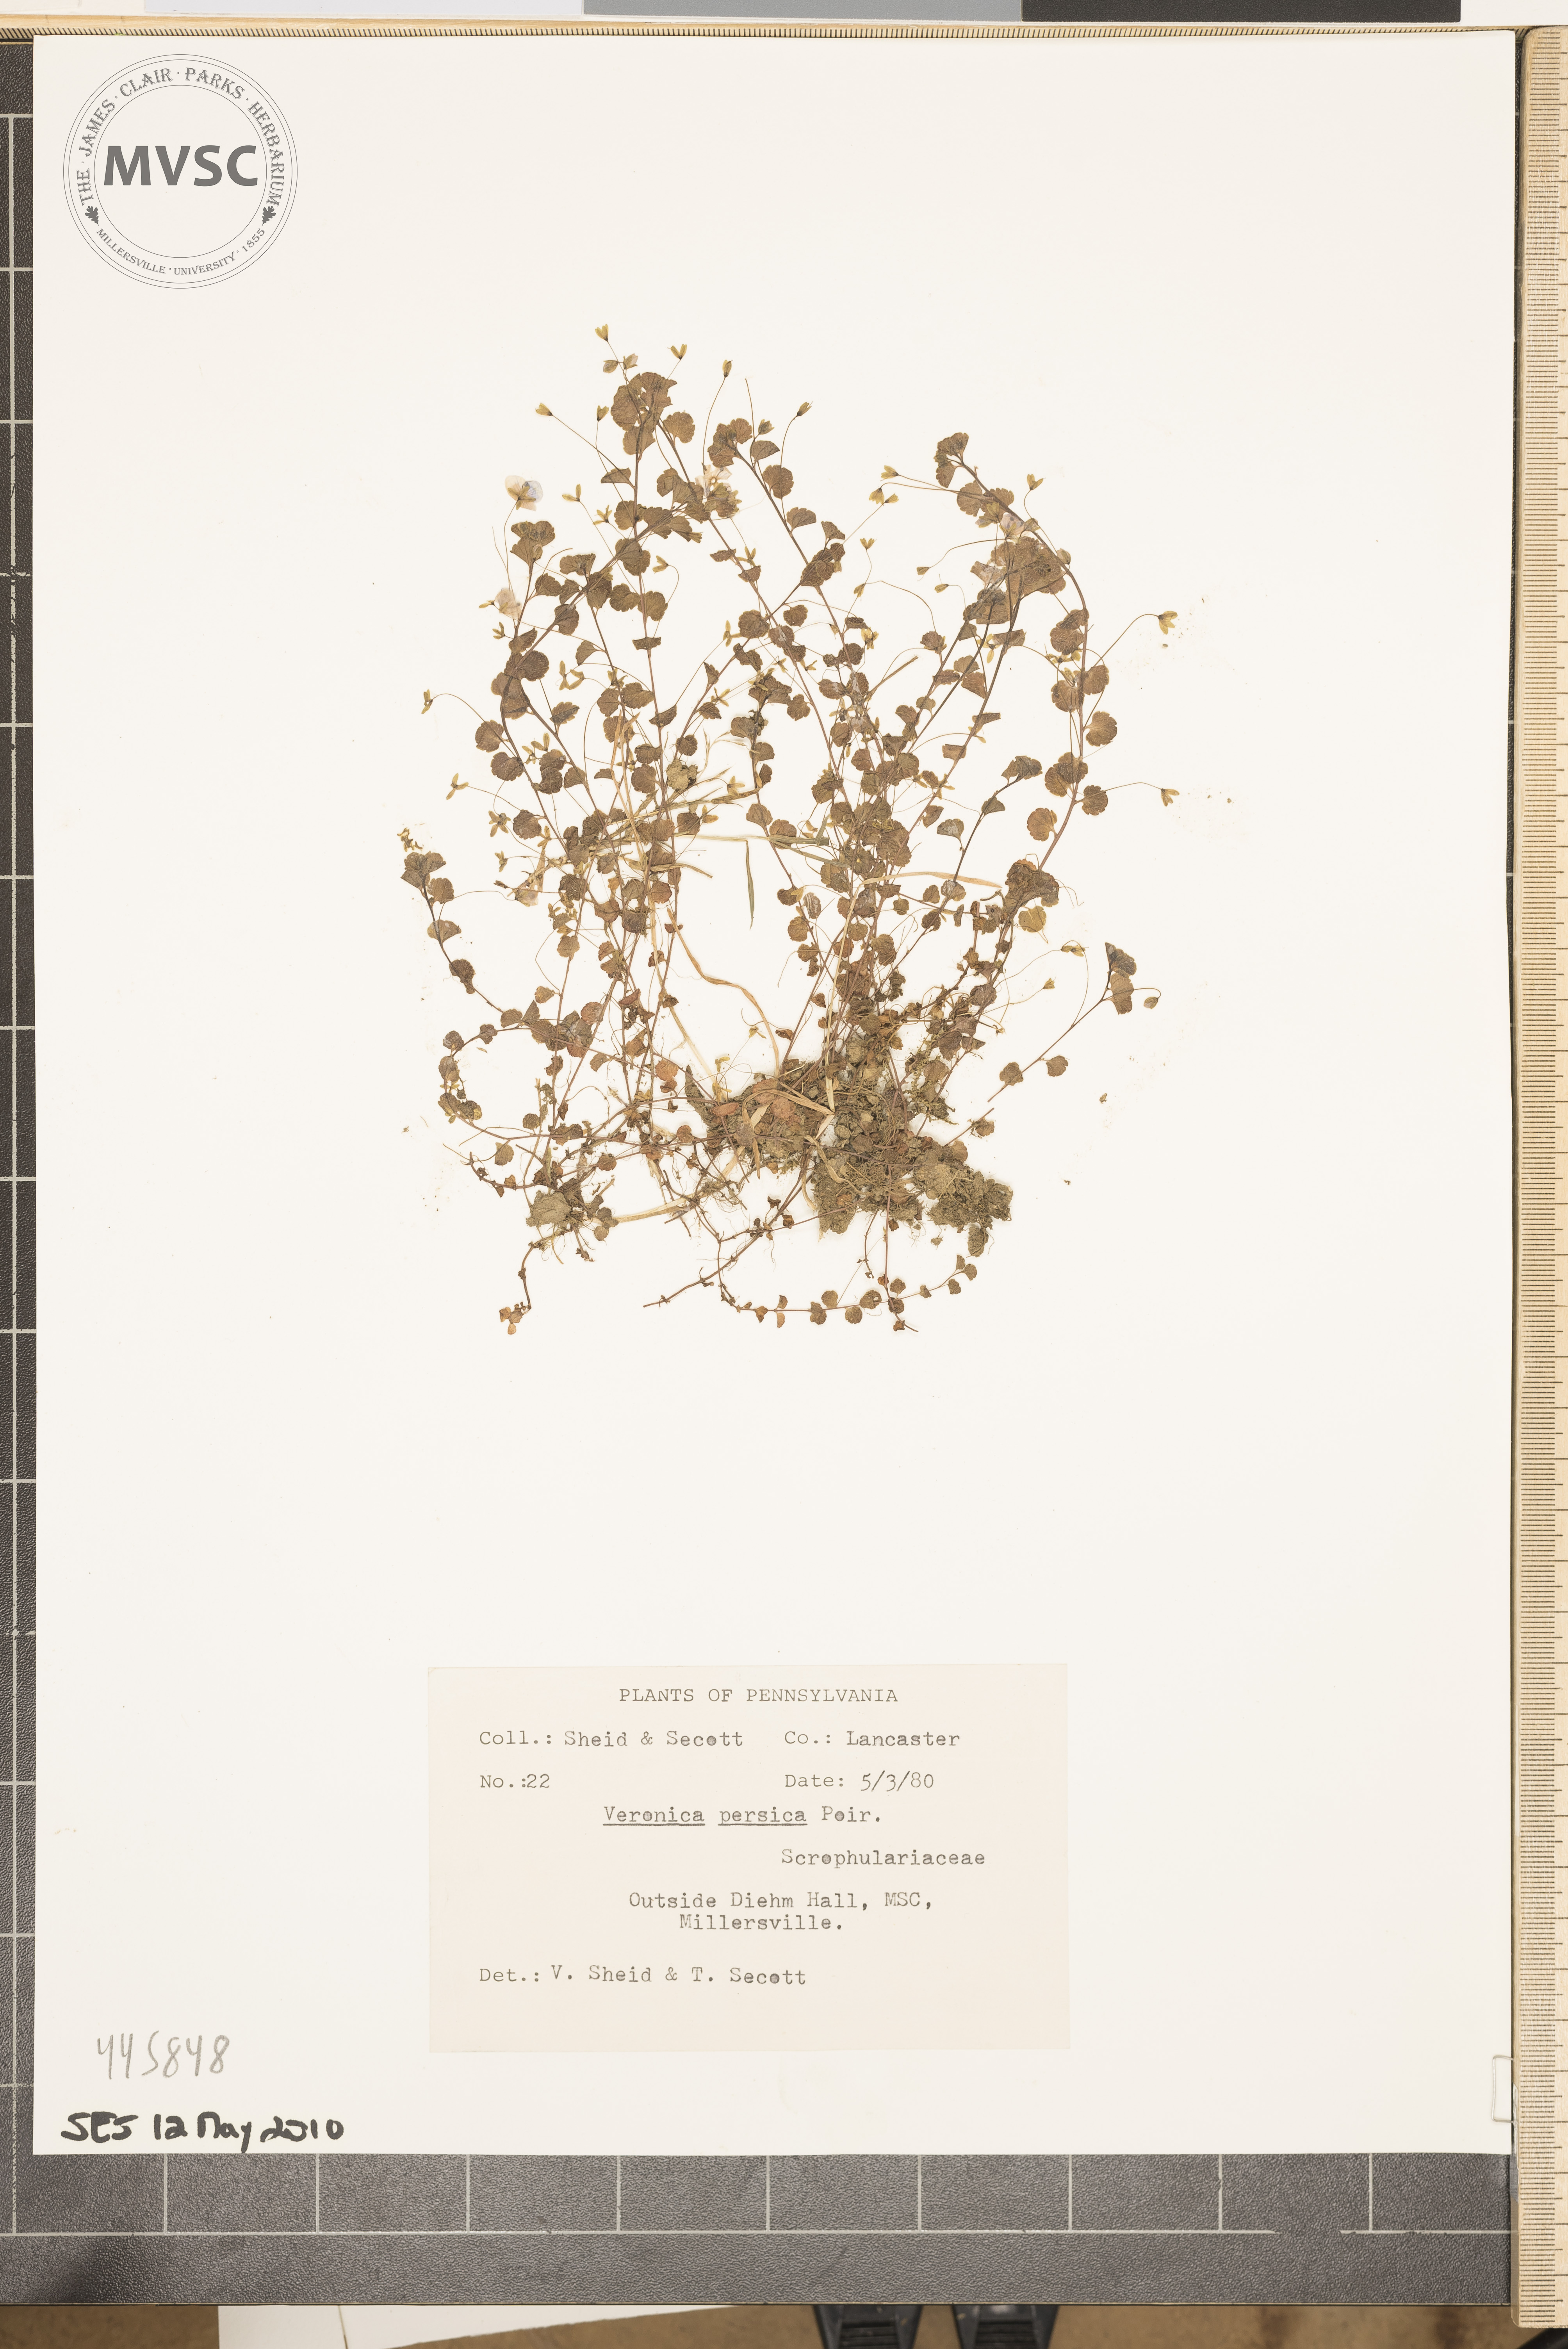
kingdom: Plantae
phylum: Tracheophyta
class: Magnoliopsida
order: Lamiales
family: Plantaginaceae
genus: Veronica
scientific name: Veronica persica
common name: Common field-speedwell
